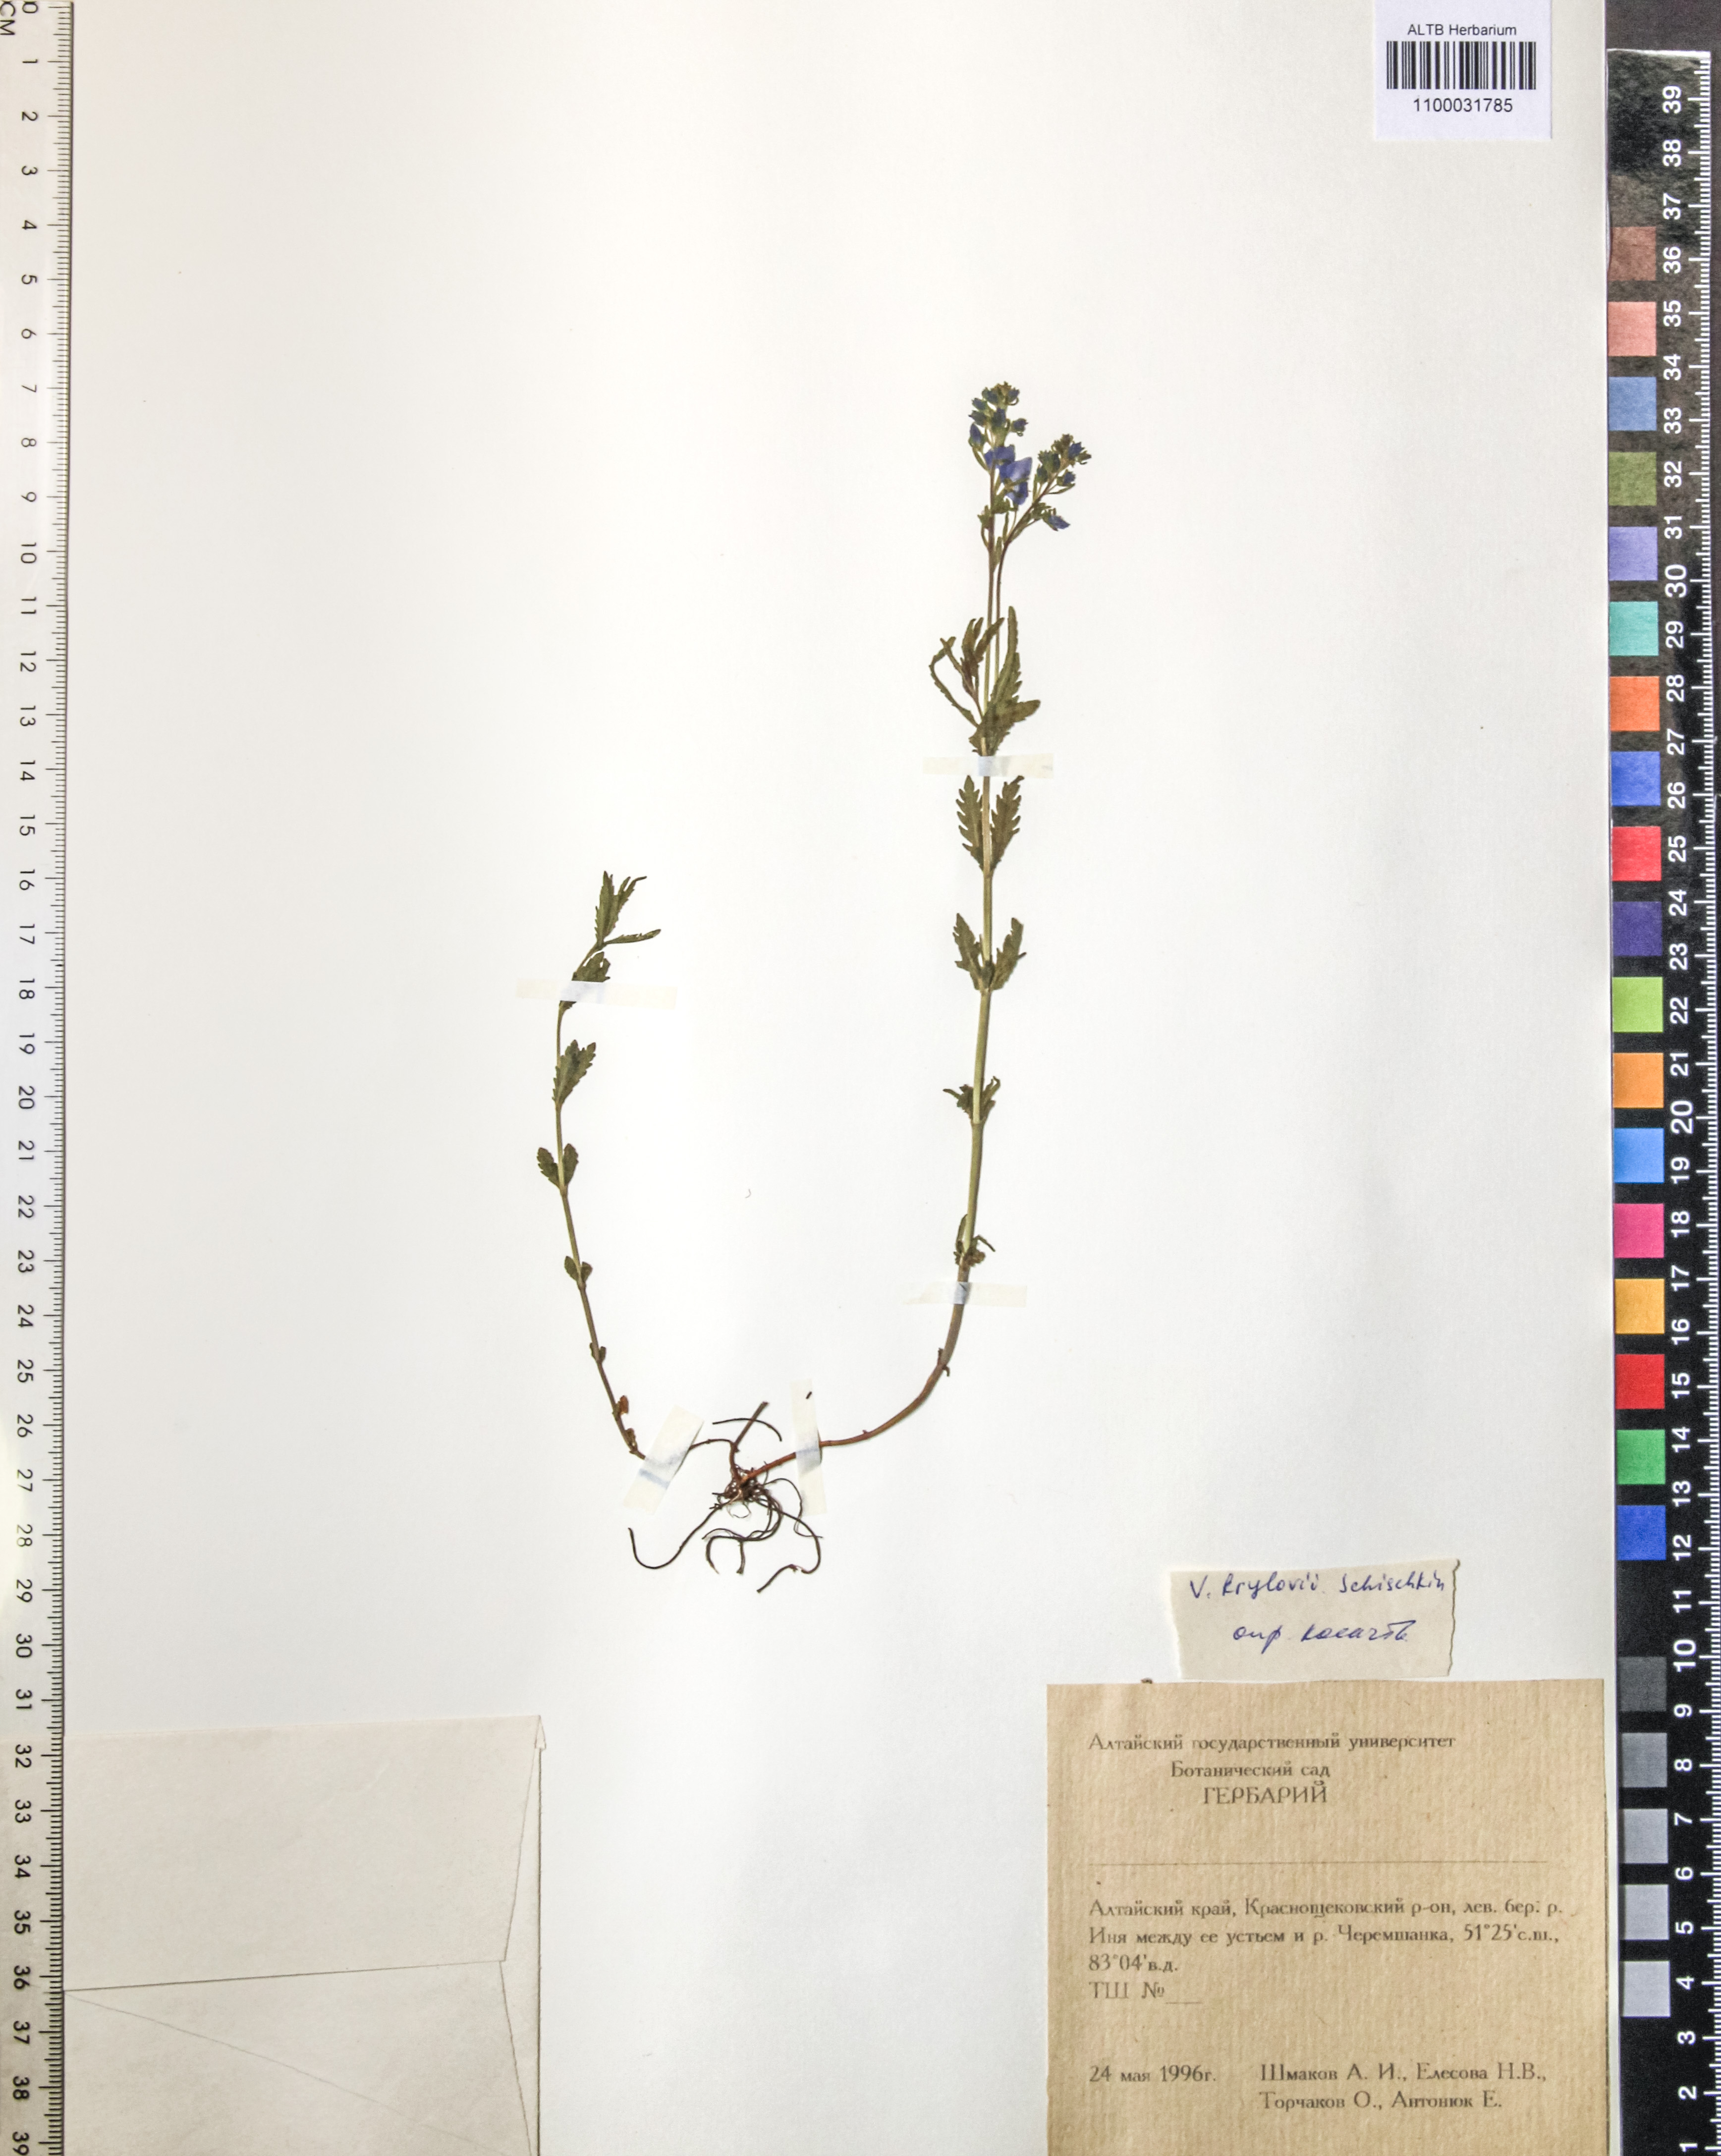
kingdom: Plantae
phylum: Tracheophyta
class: Magnoliopsida
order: Lamiales
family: Plantaginaceae
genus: Veronica
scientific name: Veronica krylovii
